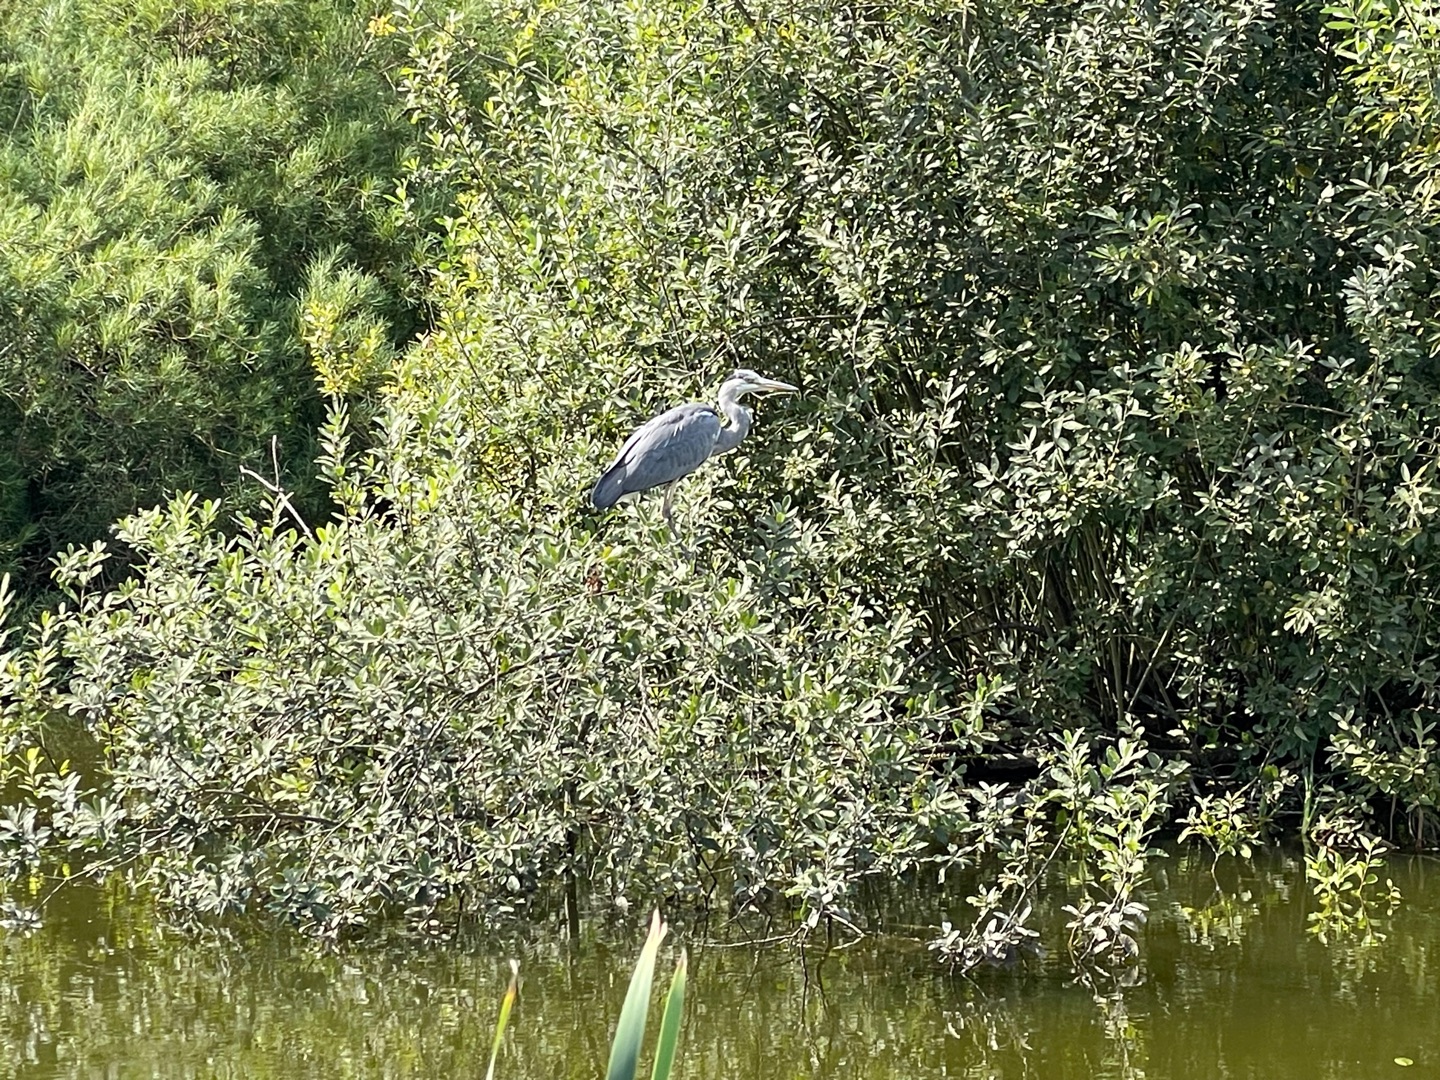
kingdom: Animalia
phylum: Chordata
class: Aves
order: Pelecaniformes
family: Ardeidae
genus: Ardea
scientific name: Ardea cinerea
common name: Fiskehejre
